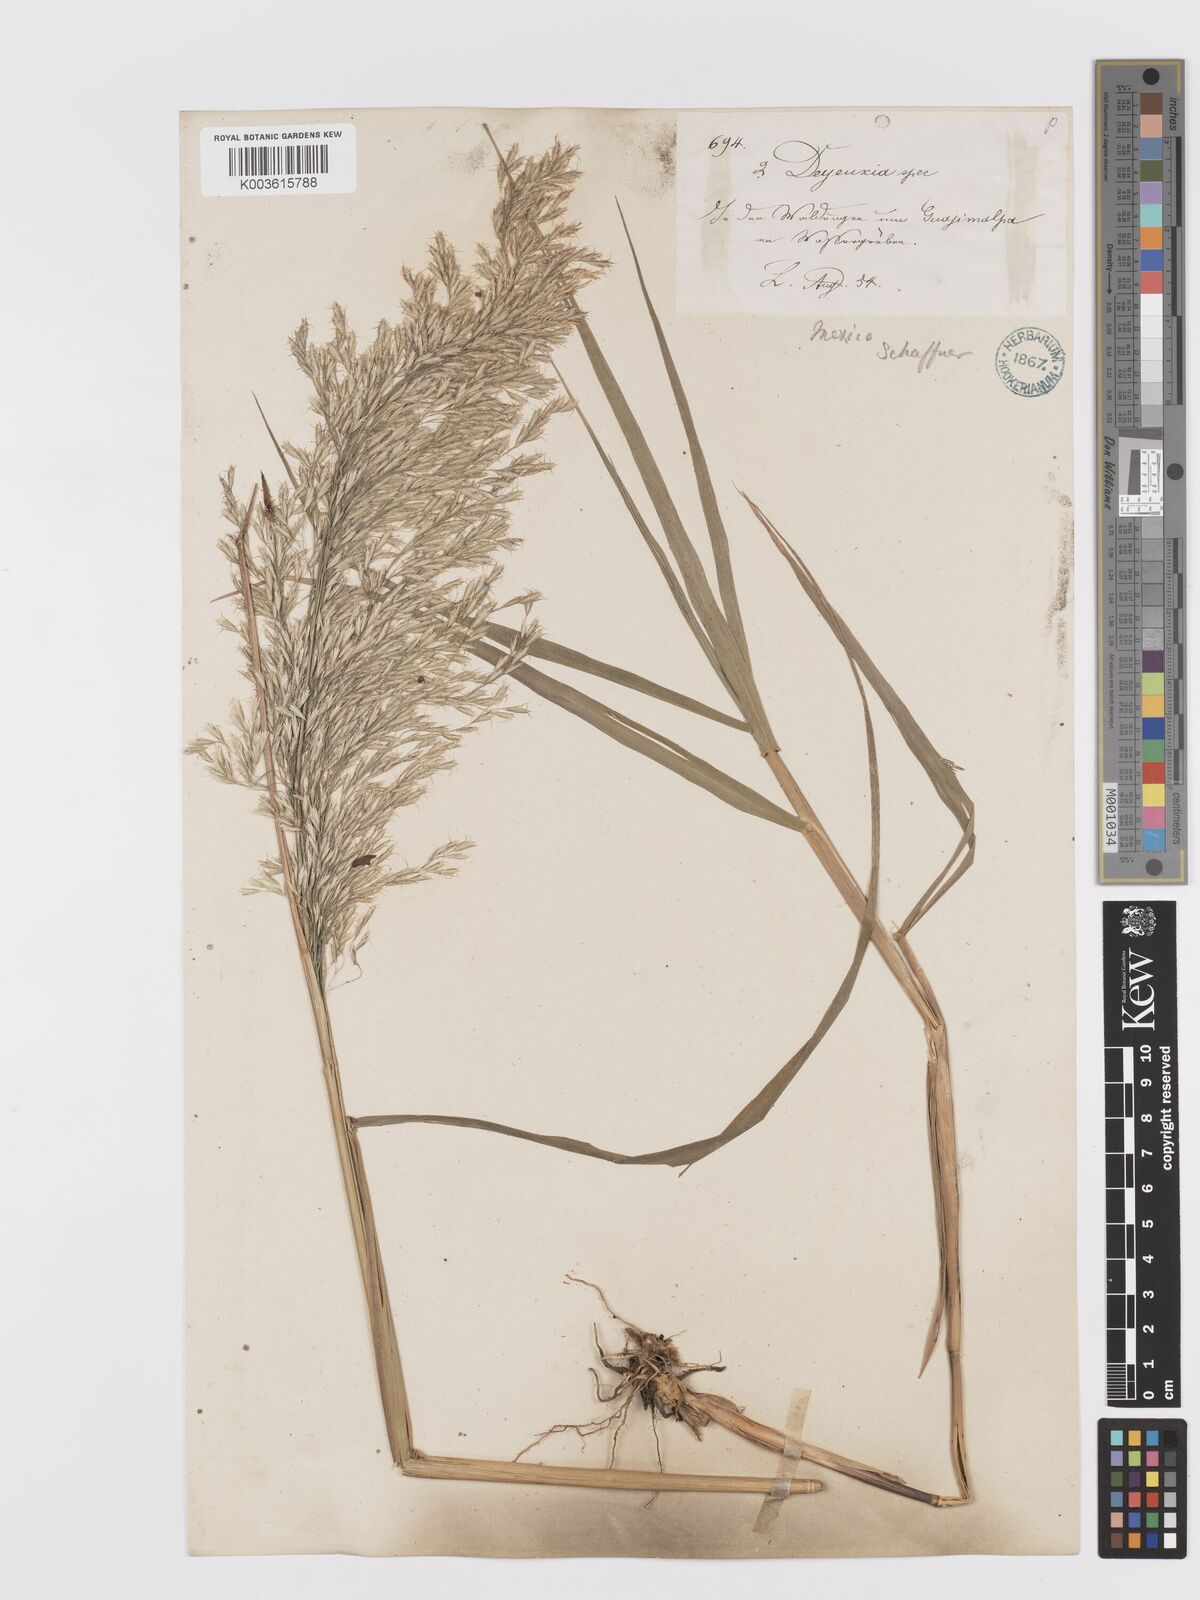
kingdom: Plantae
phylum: Tracheophyta
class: Liliopsida
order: Poales
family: Poaceae
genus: Peyritschia
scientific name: Peyritschia viridis
